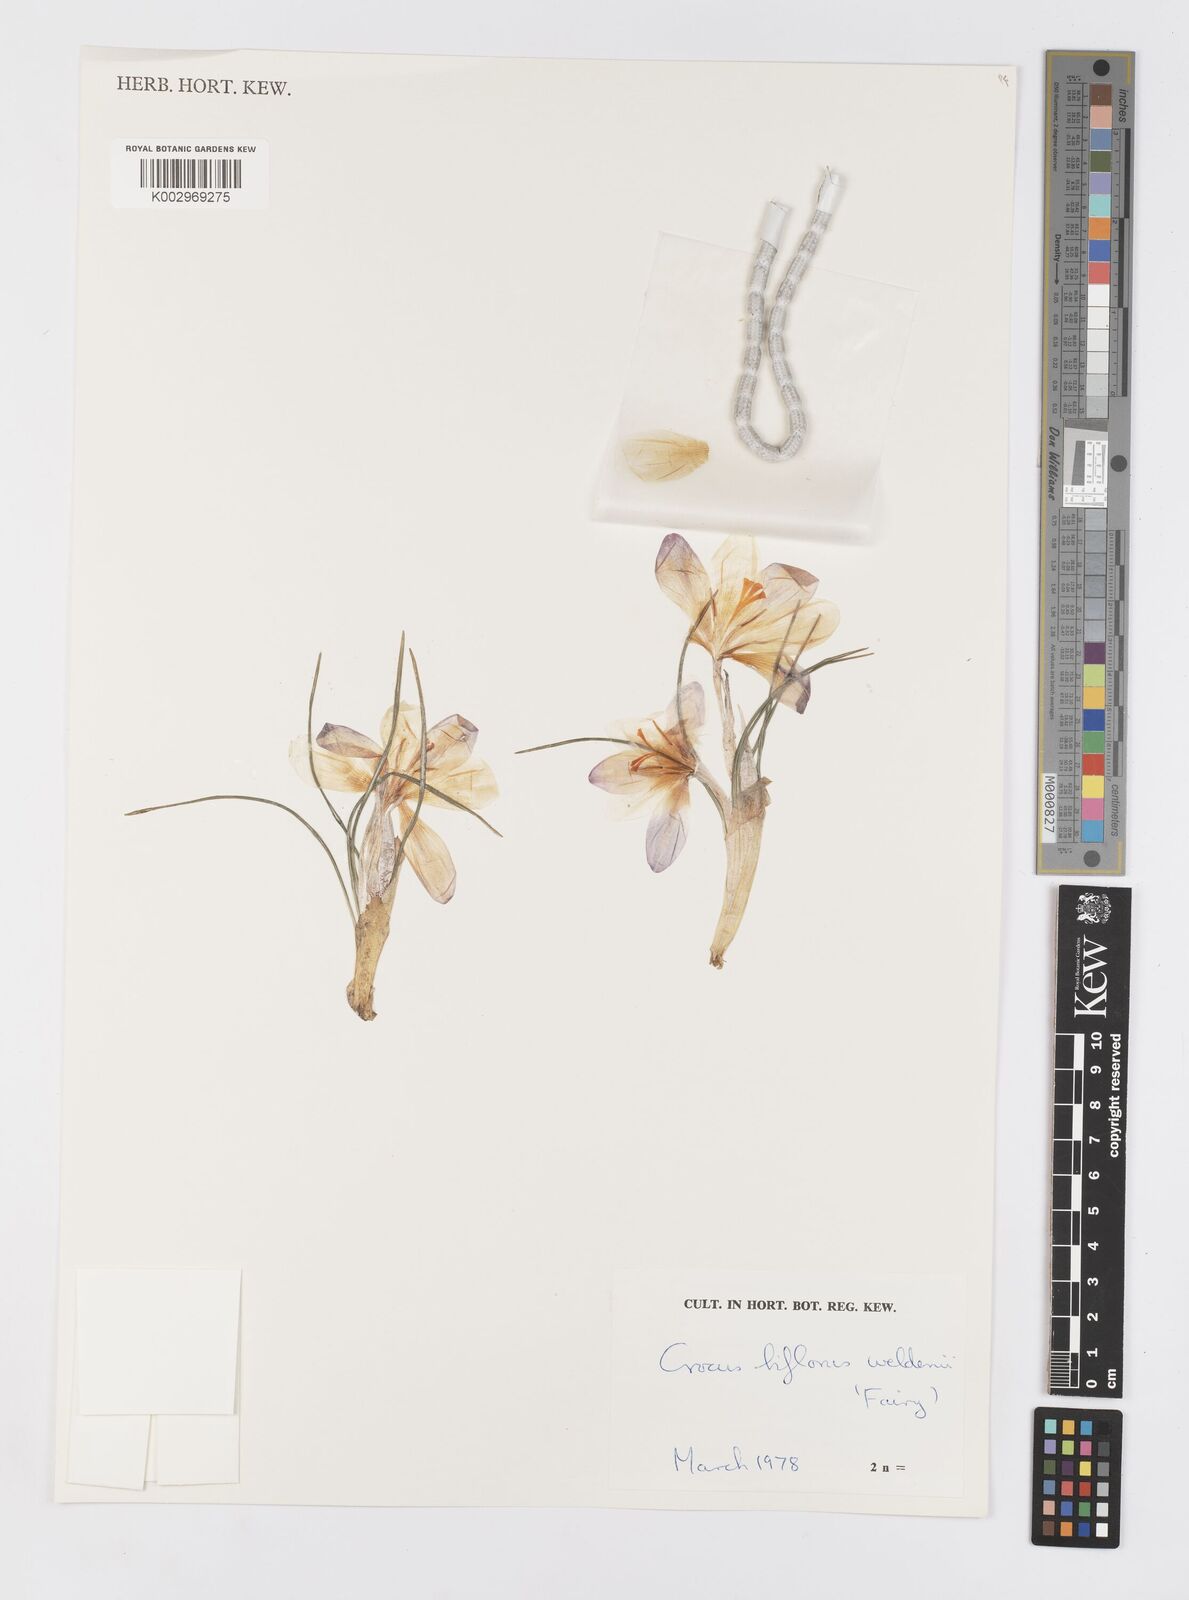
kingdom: Plantae
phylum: Tracheophyta
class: Liliopsida
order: Asparagales
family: Iridaceae
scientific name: Iridaceae
